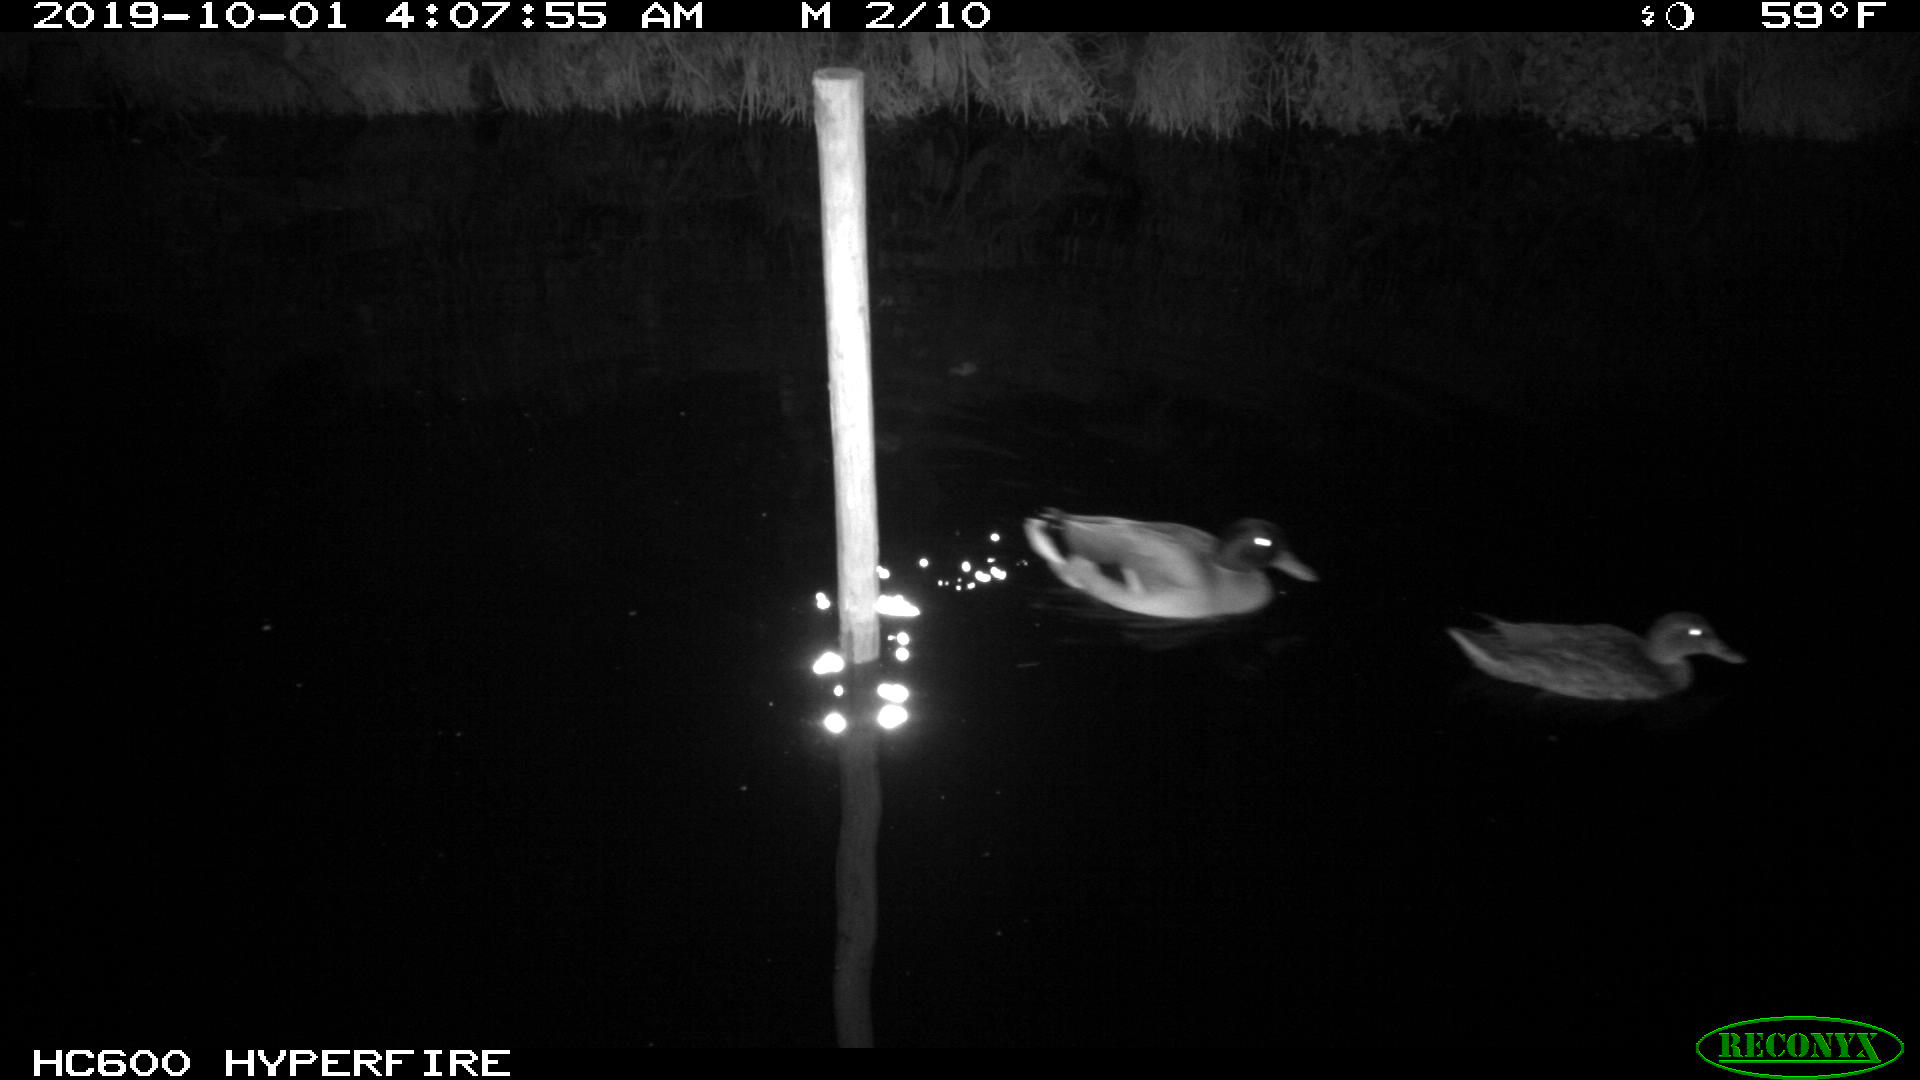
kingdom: Animalia
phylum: Chordata
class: Aves
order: Anseriformes
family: Anatidae
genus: Anas
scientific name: Anas platyrhynchos
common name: Mallard
